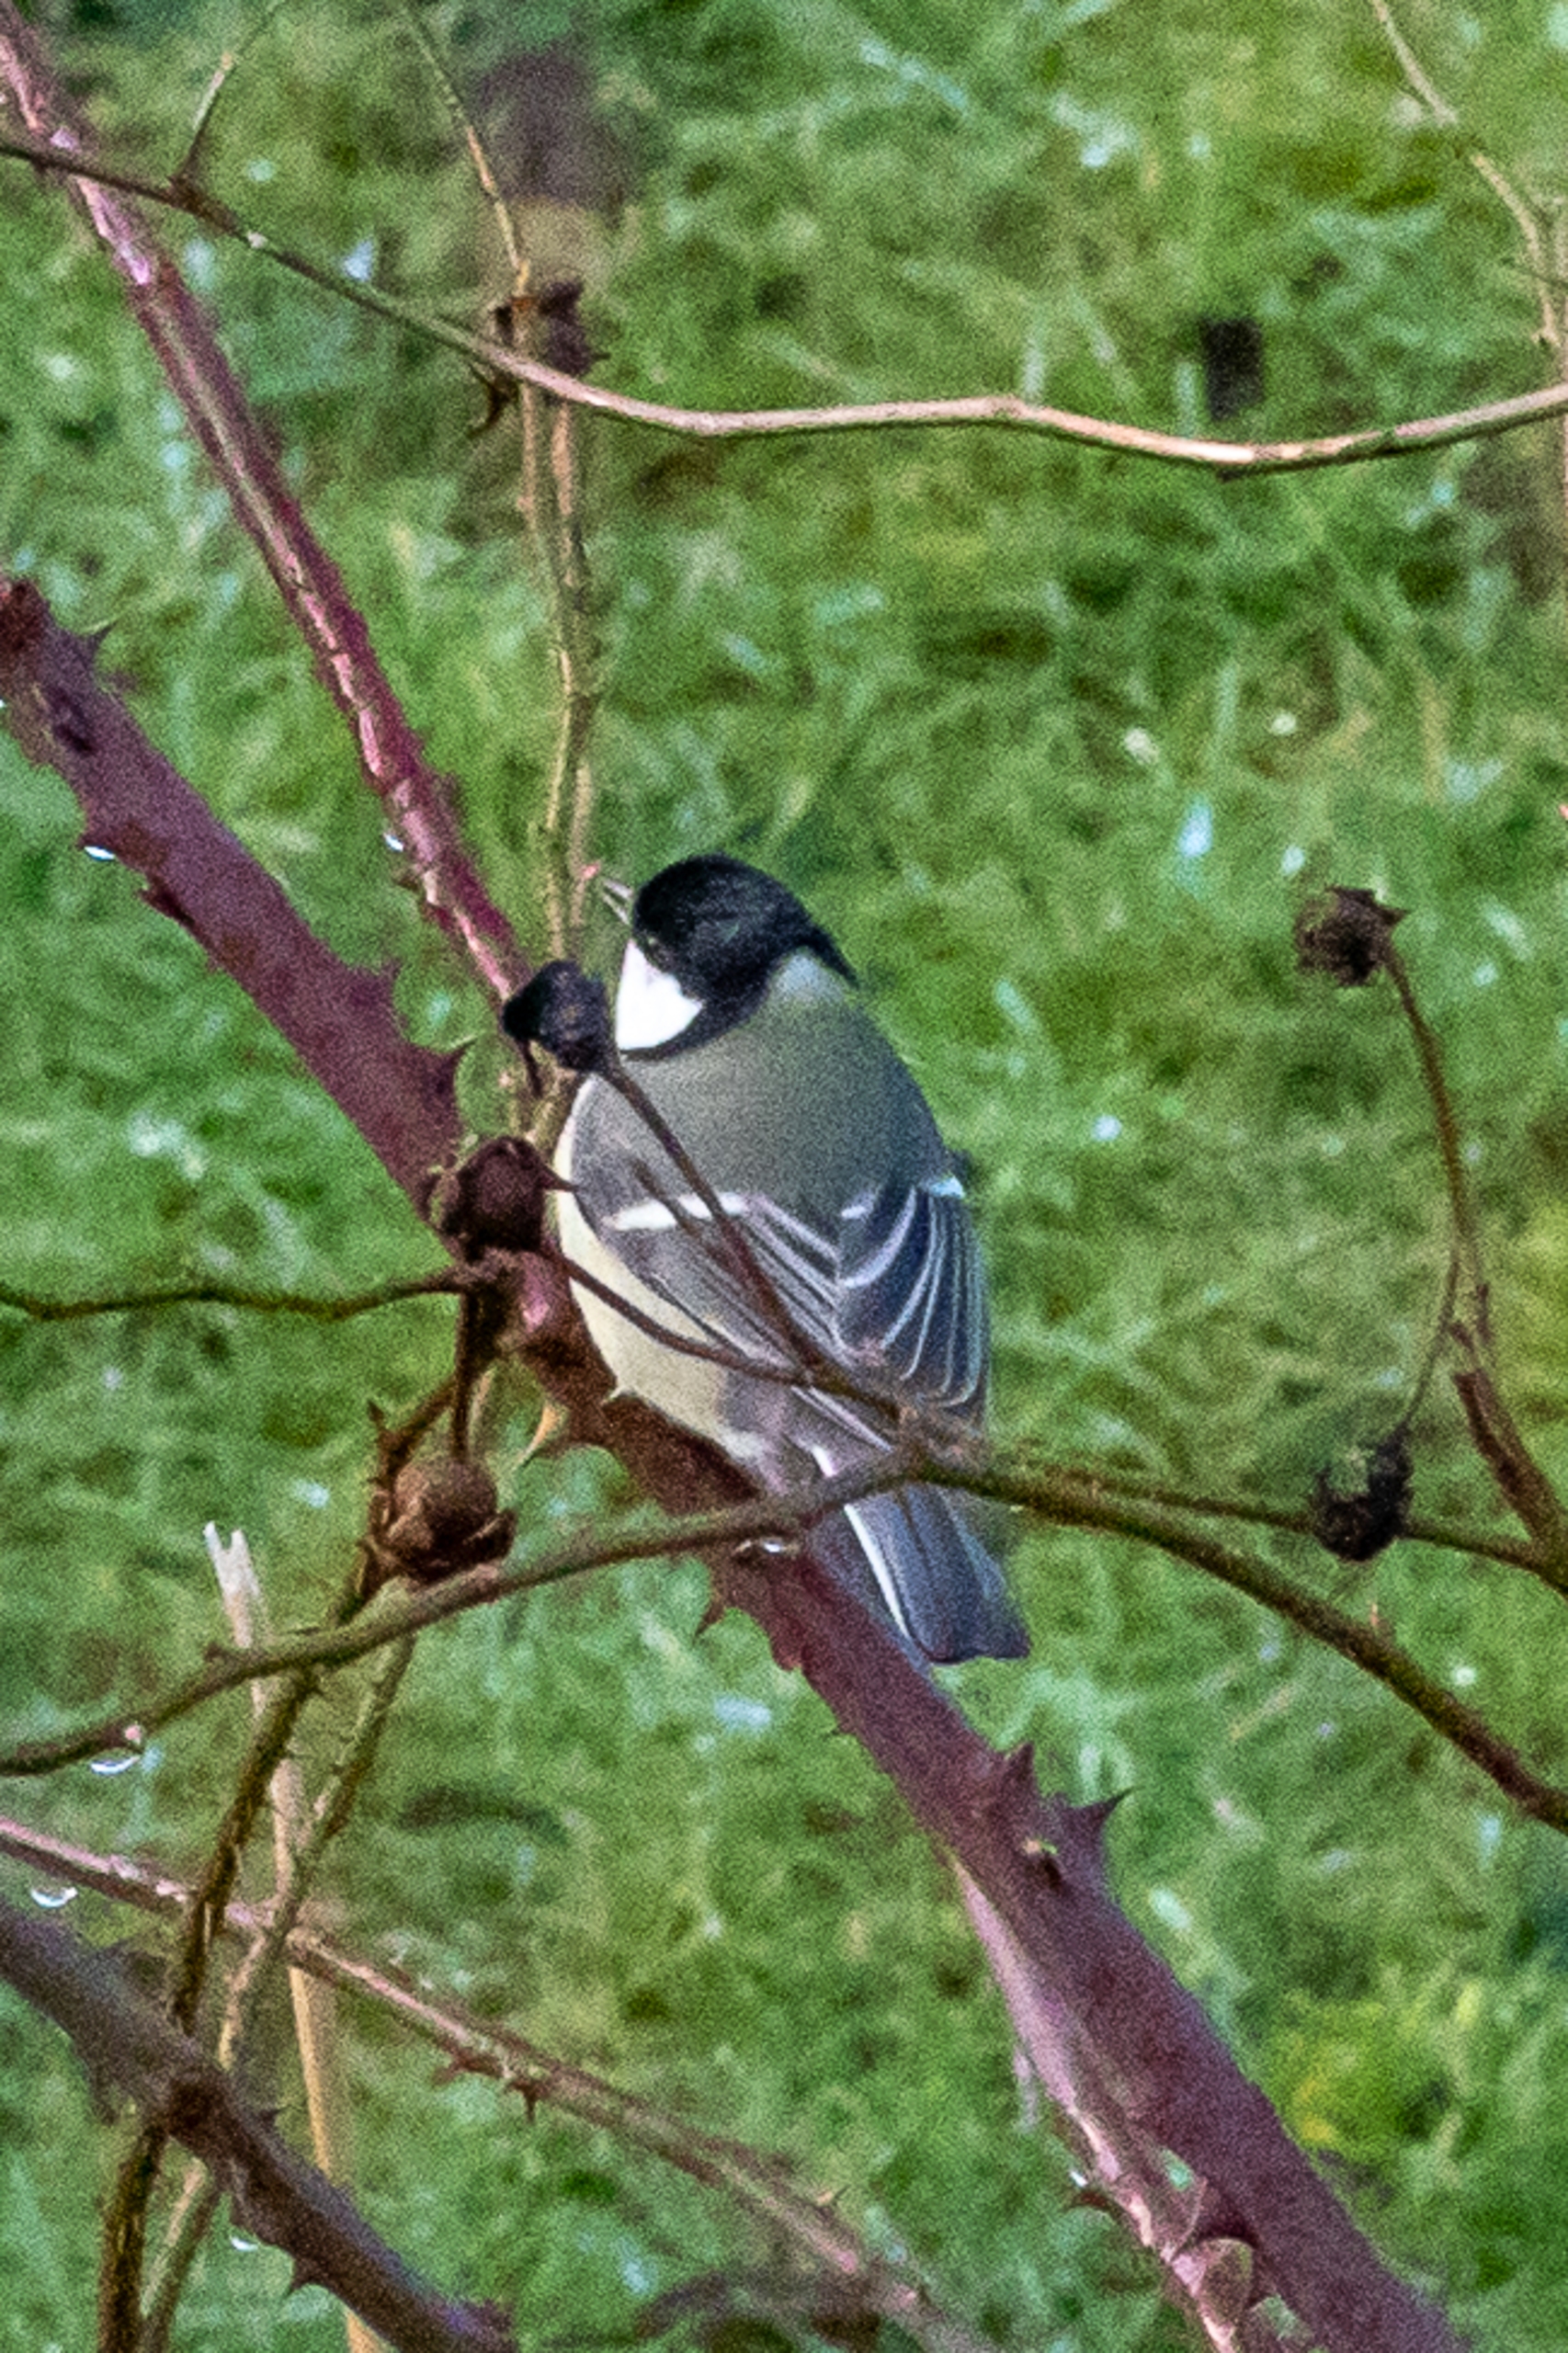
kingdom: Animalia
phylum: Chordata
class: Aves
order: Passeriformes
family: Paridae
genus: Parus
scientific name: Parus major
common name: Musvit
